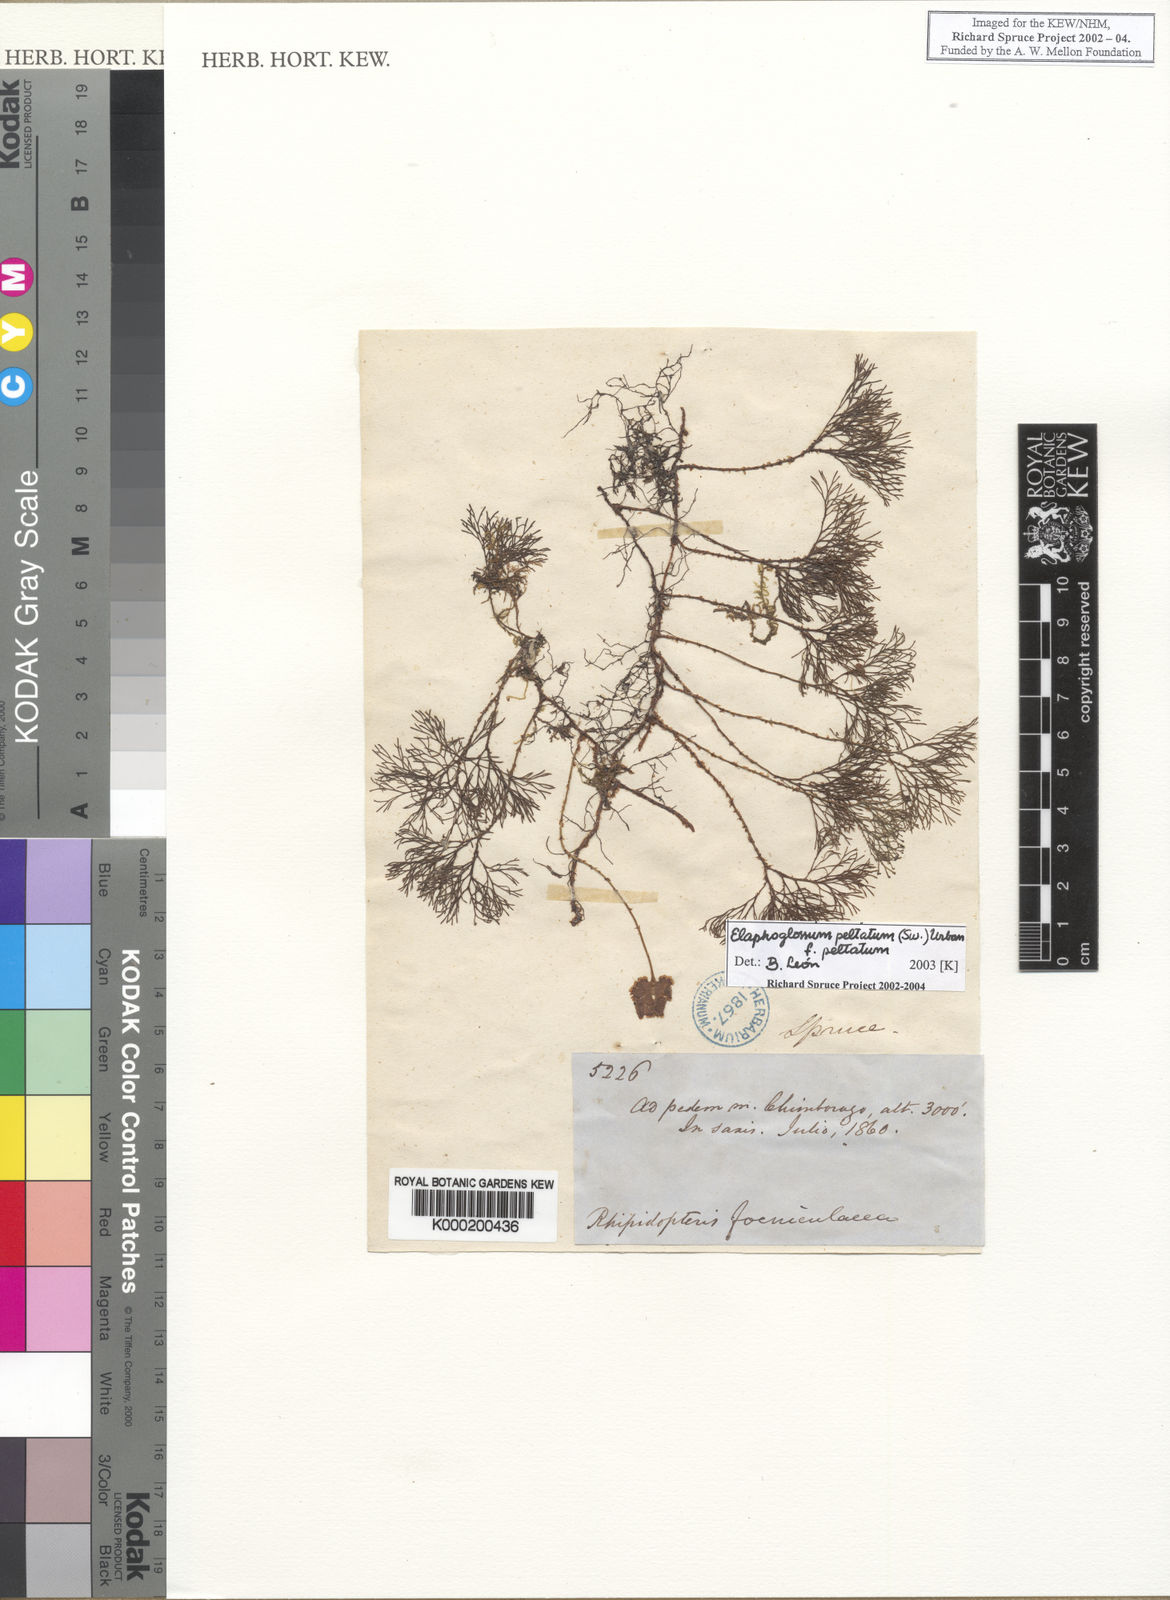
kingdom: Plantae
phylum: Tracheophyta
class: Polypodiopsida
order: Polypodiales
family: Dryopteridaceae
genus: Elaphoglossum
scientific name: Elaphoglossum peltatum
